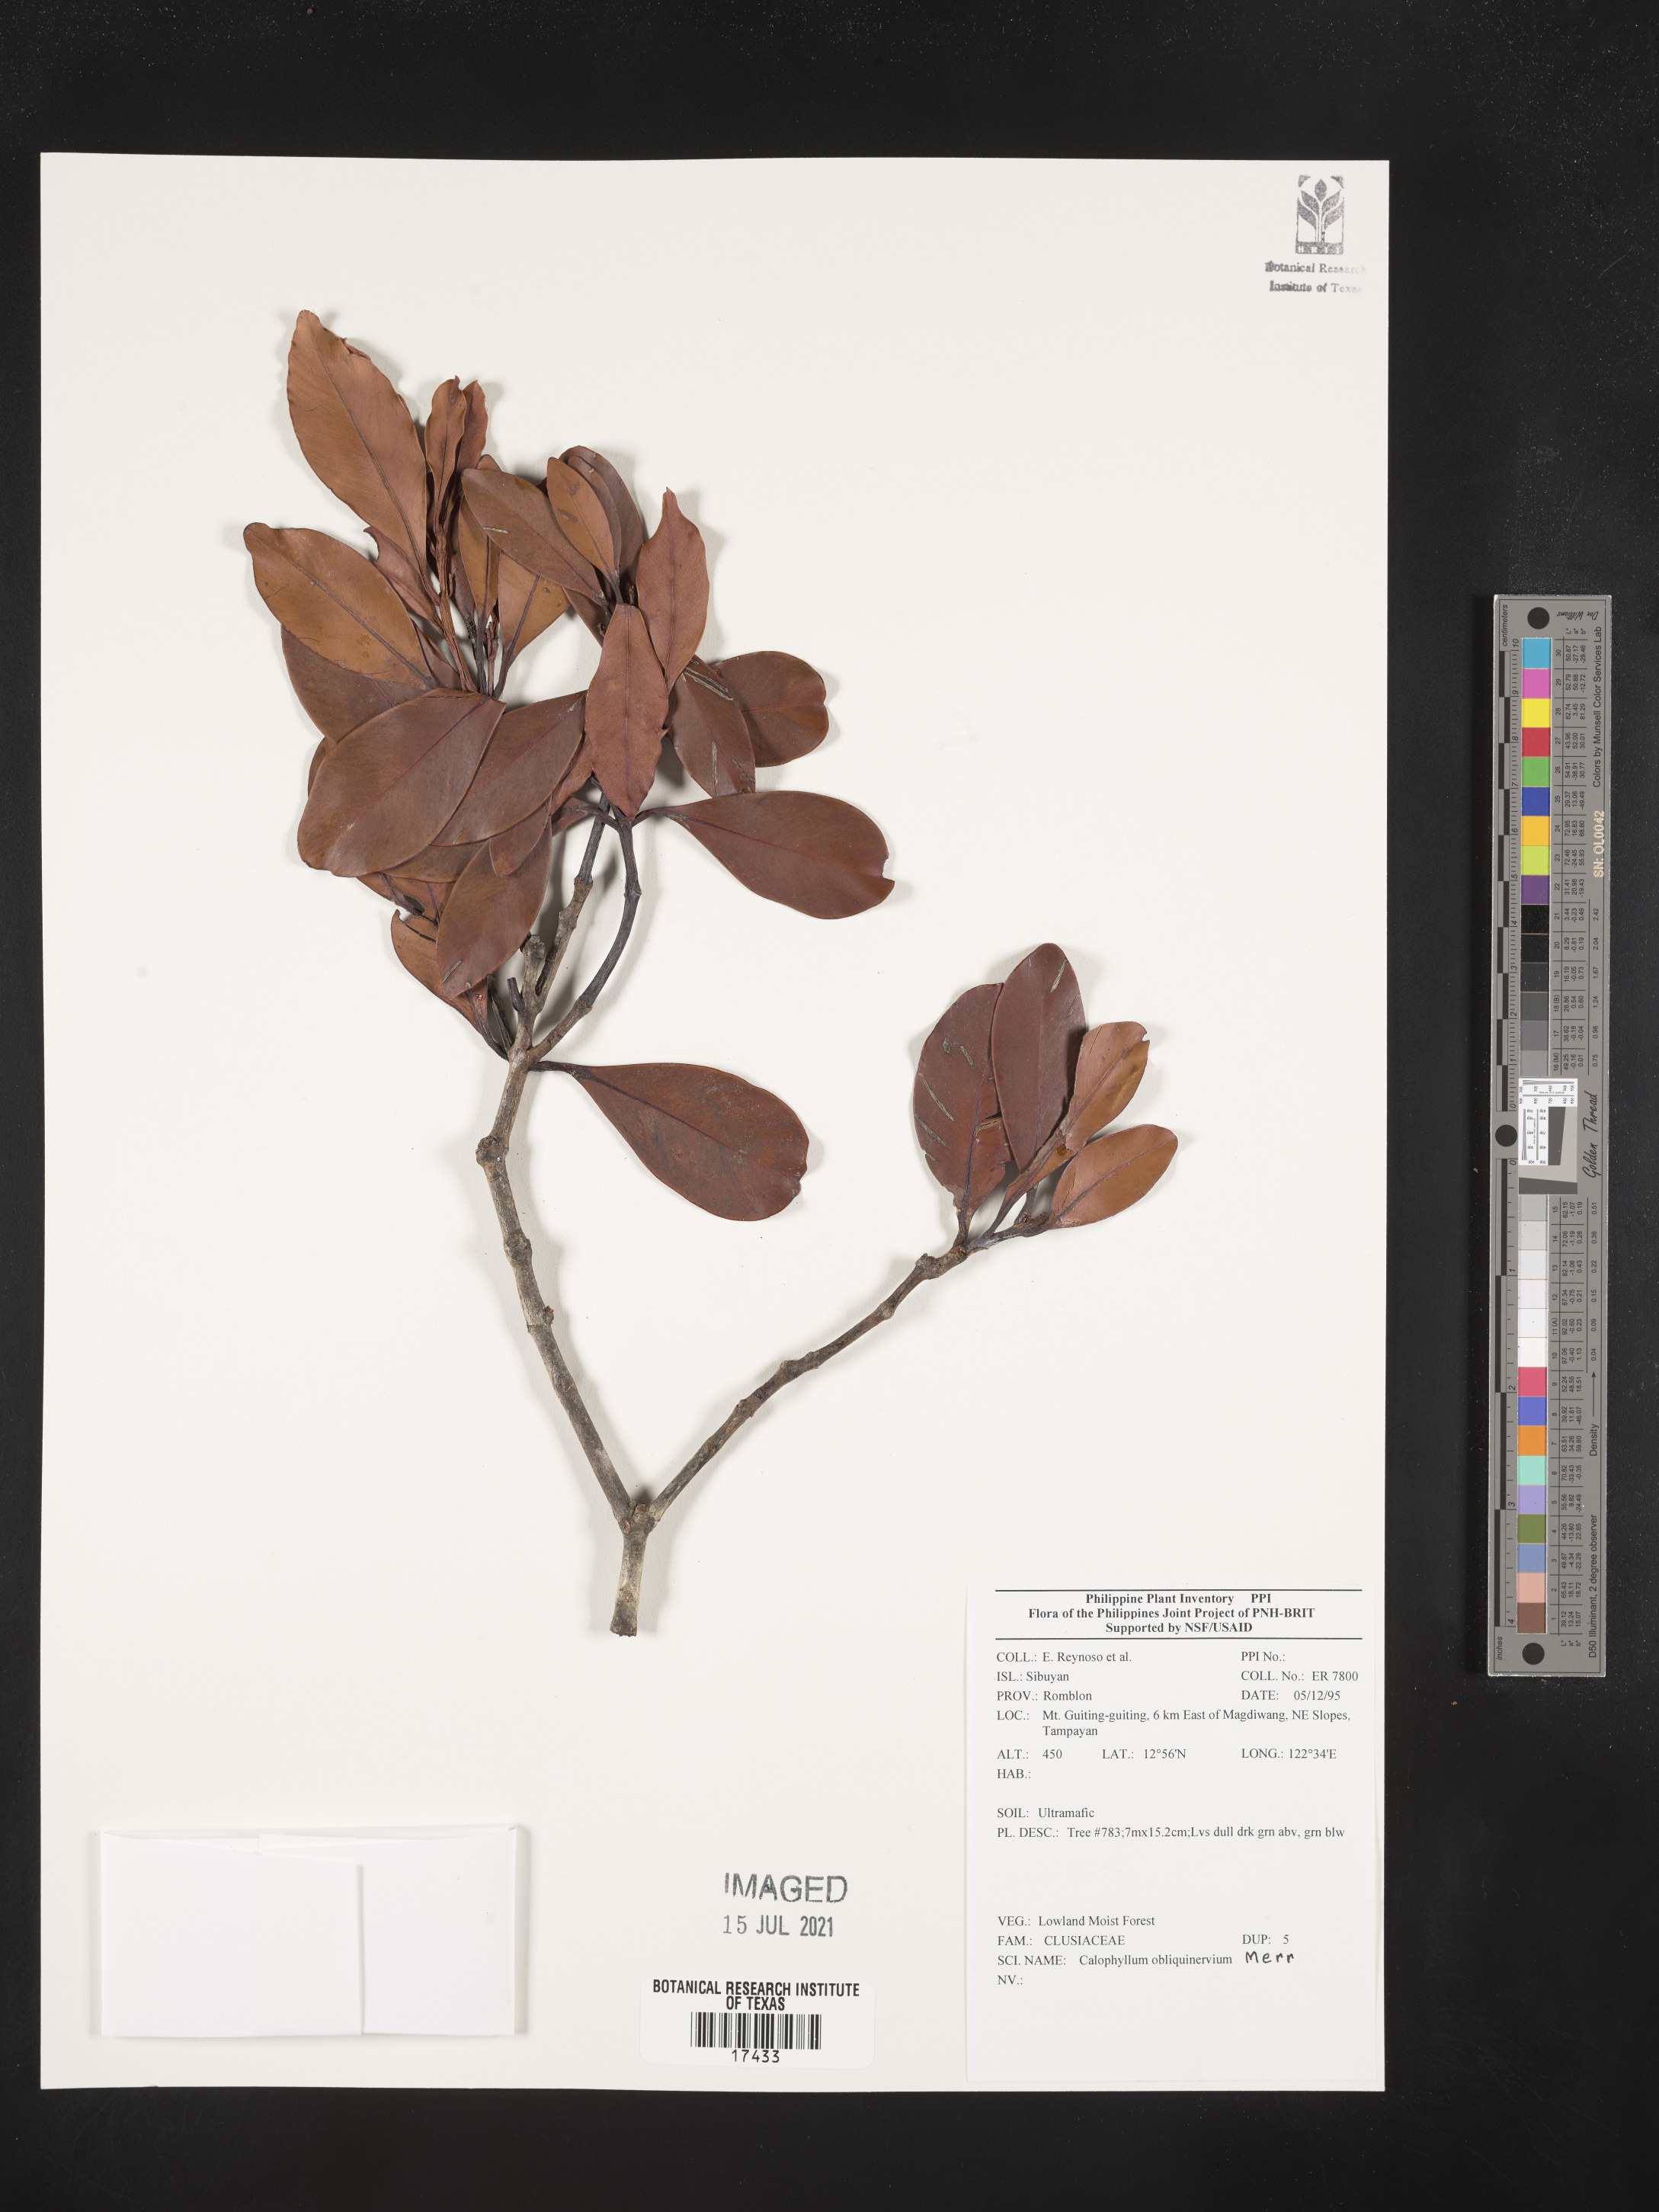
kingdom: Plantae
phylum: Tracheophyta
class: Magnoliopsida
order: Malpighiales
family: Calophyllaceae
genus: Calophyllum
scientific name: Calophyllum obliquinervium
